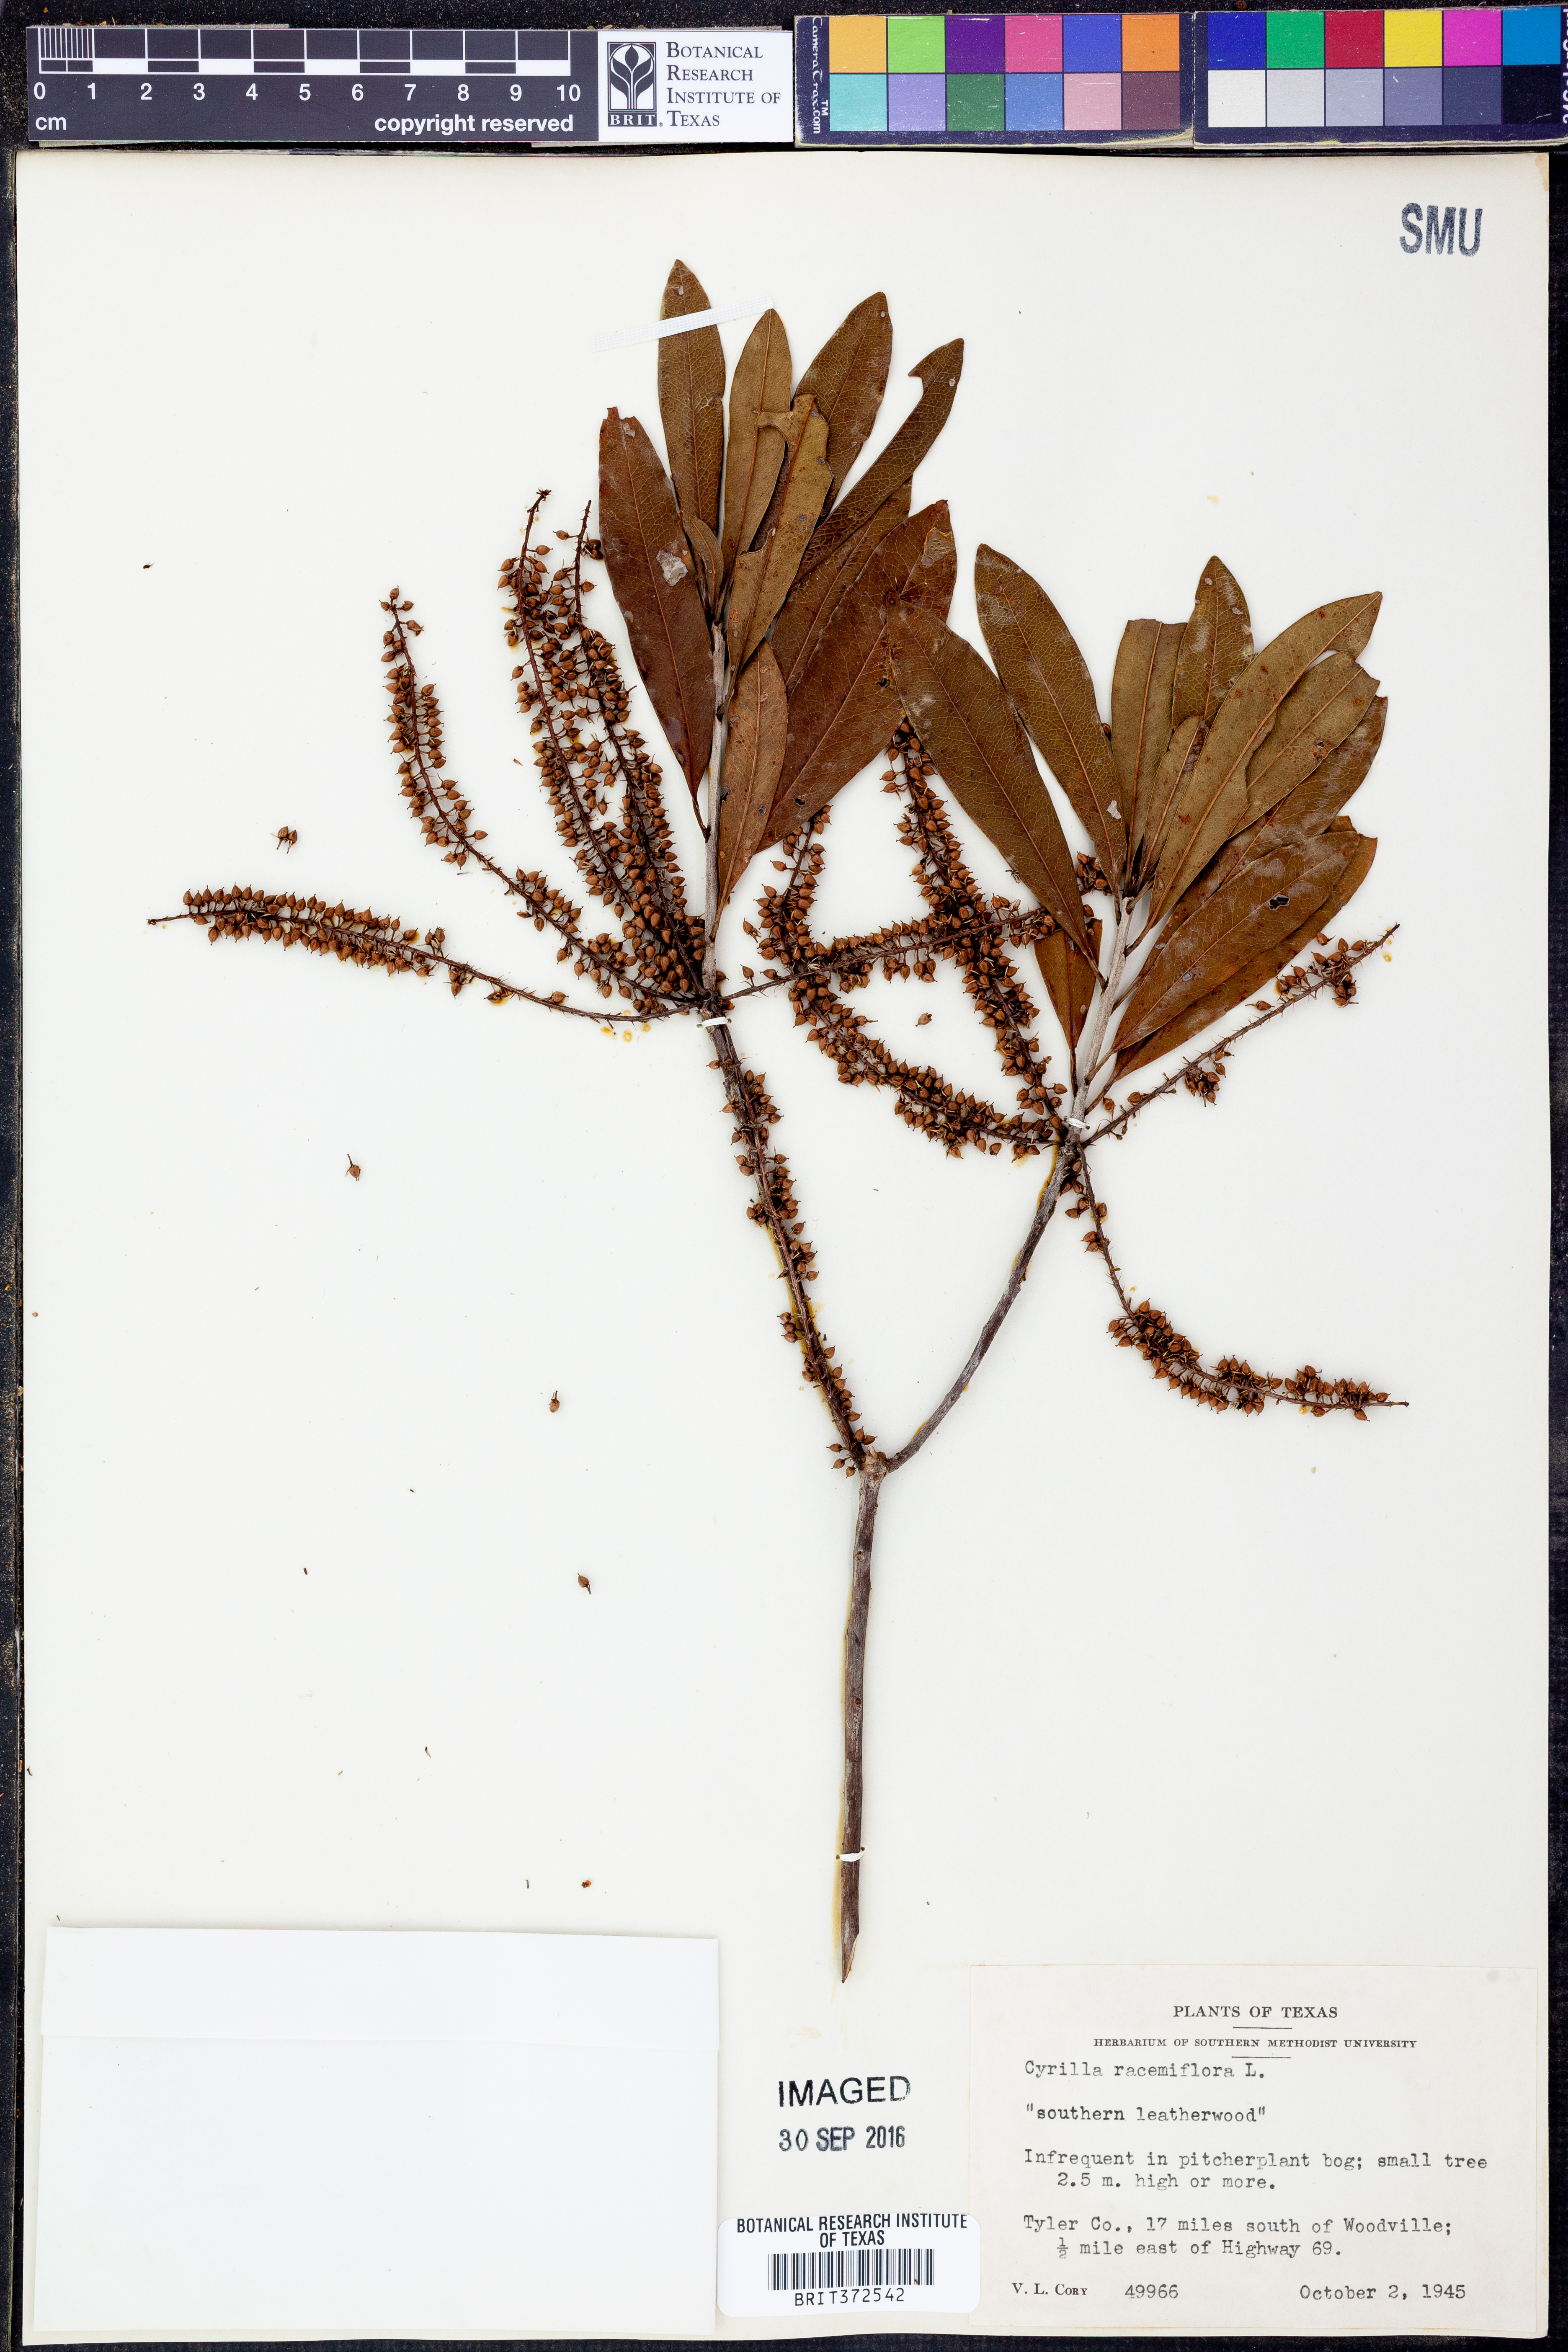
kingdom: Plantae
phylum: Tracheophyta
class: Magnoliopsida
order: Ericales
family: Cyrillaceae
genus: Cyrilla
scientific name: Cyrilla racemiflora
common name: Black titi
